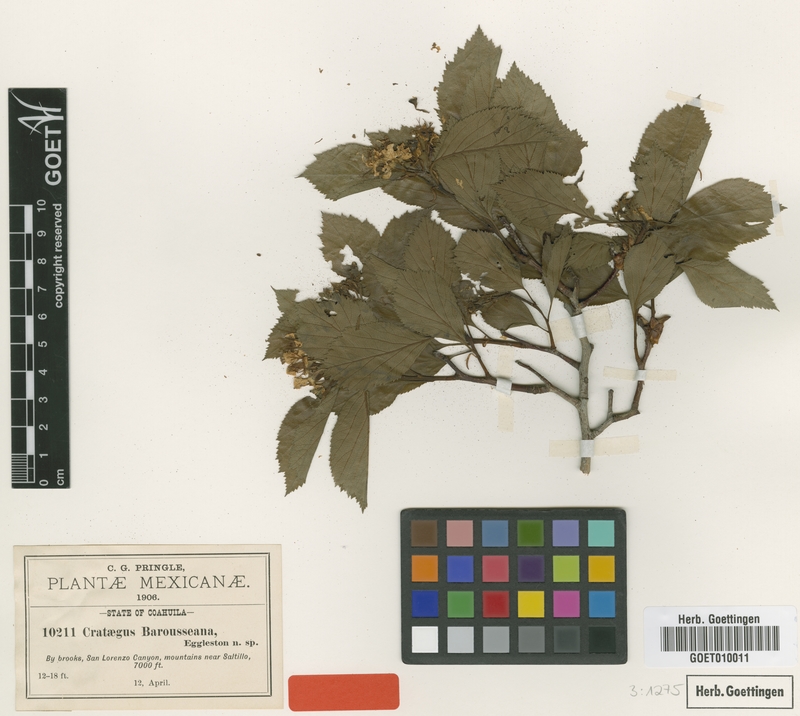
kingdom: Plantae
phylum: Tracheophyta
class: Magnoliopsida
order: Rosales
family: Rosaceae
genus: Crataegus
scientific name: Crataegus baroussana
